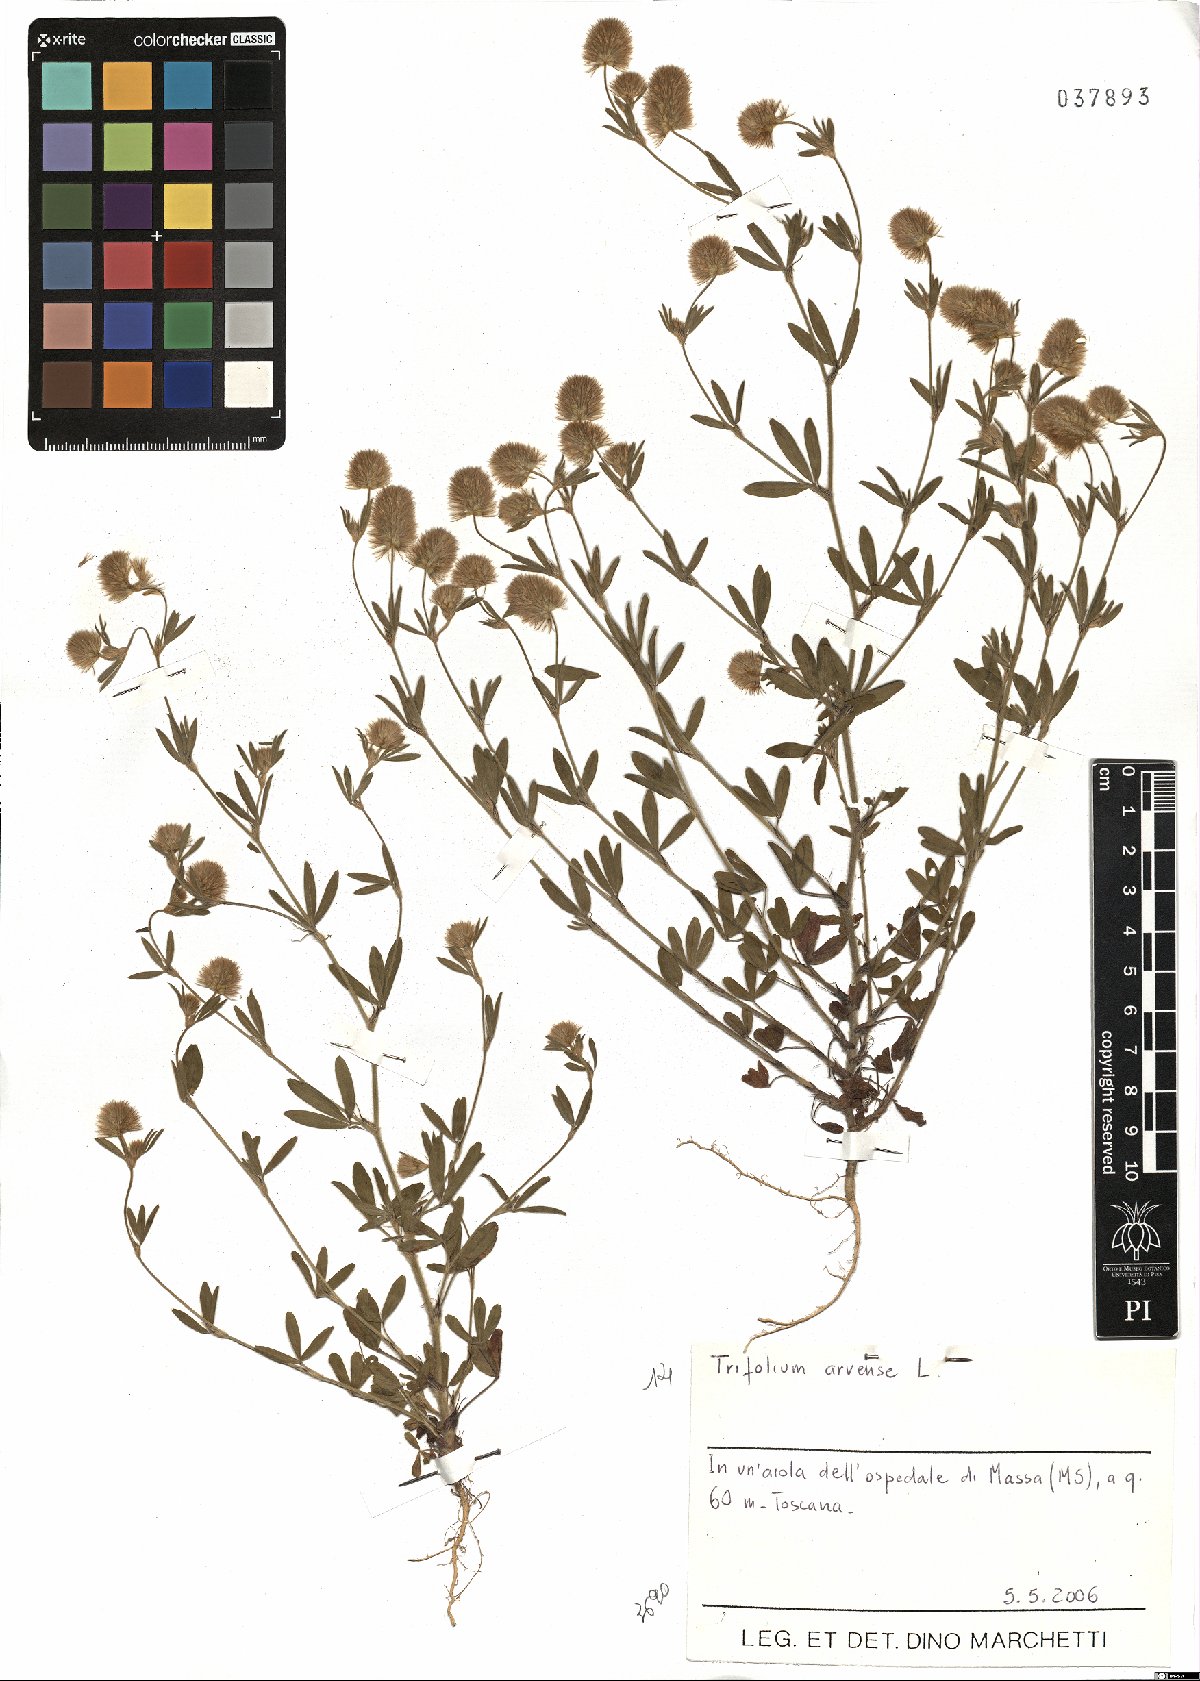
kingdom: Plantae
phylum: Tracheophyta
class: Magnoliopsida
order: Fabales
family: Fabaceae
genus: Trifolium
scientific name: Trifolium arvense
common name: Hare's-foot clover
